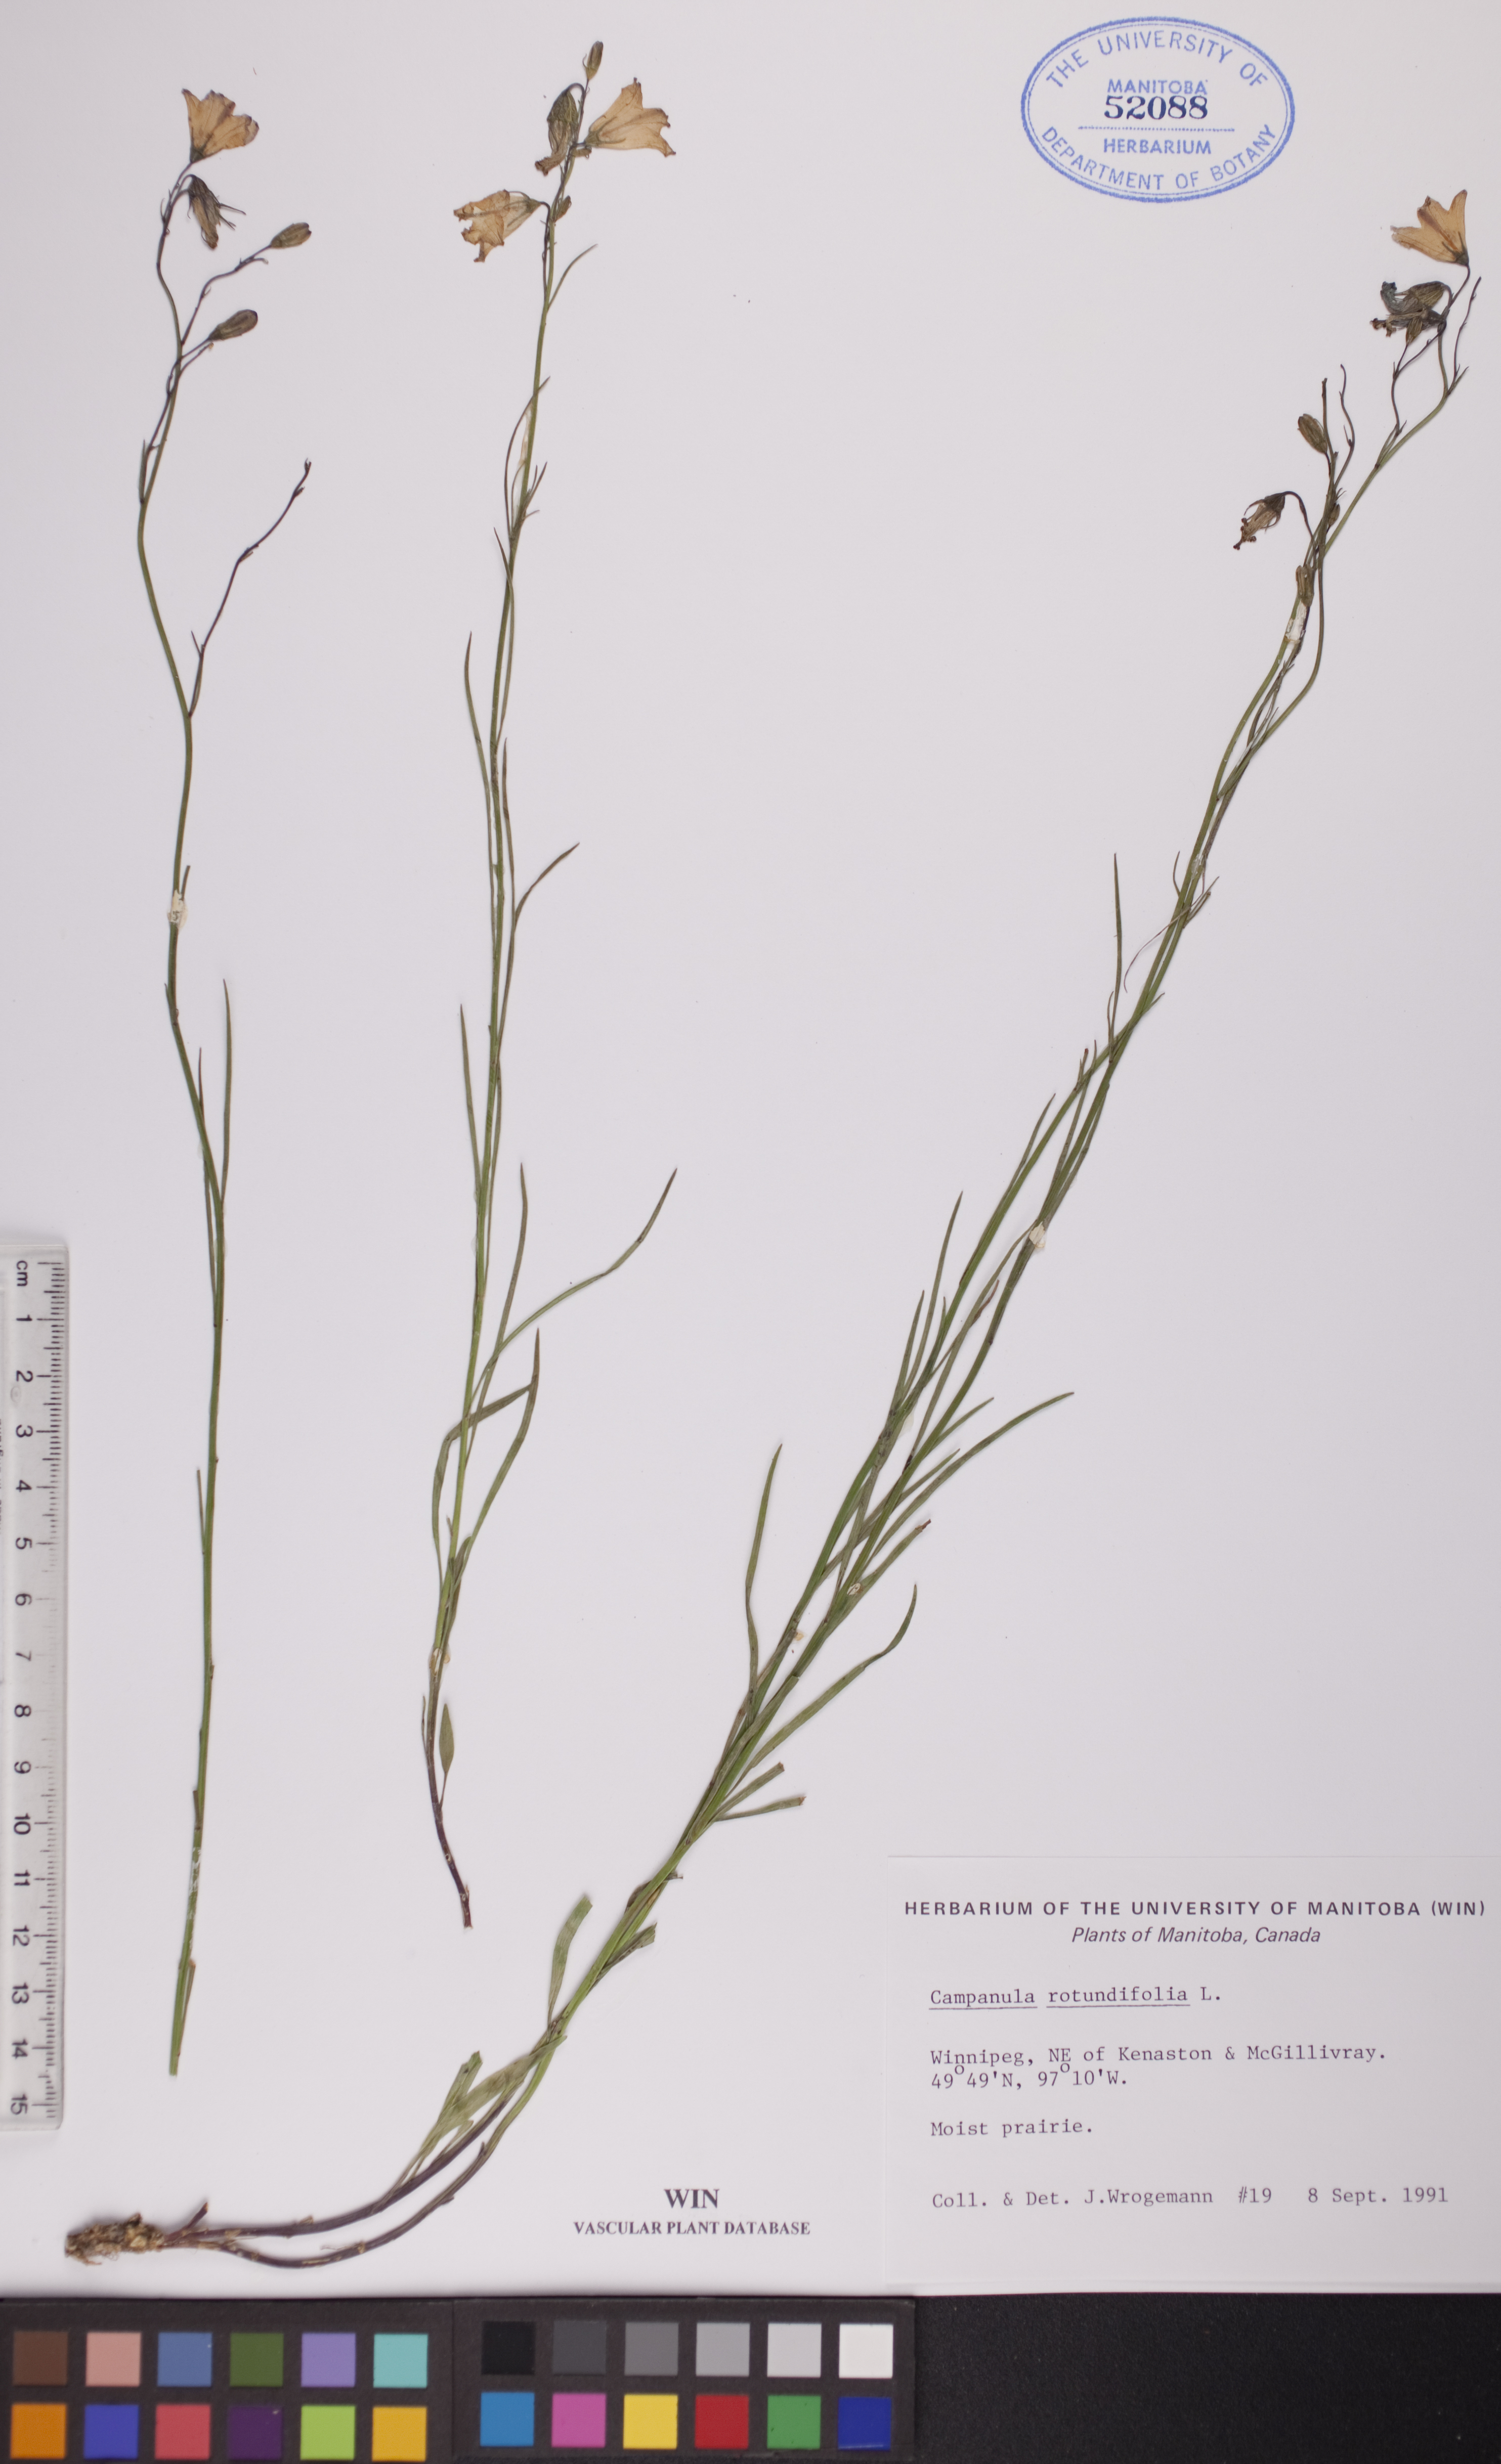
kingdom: Plantae
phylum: Tracheophyta
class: Magnoliopsida
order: Asterales
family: Campanulaceae
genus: Campanula
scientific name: Campanula rotundifolia
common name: Harebell
